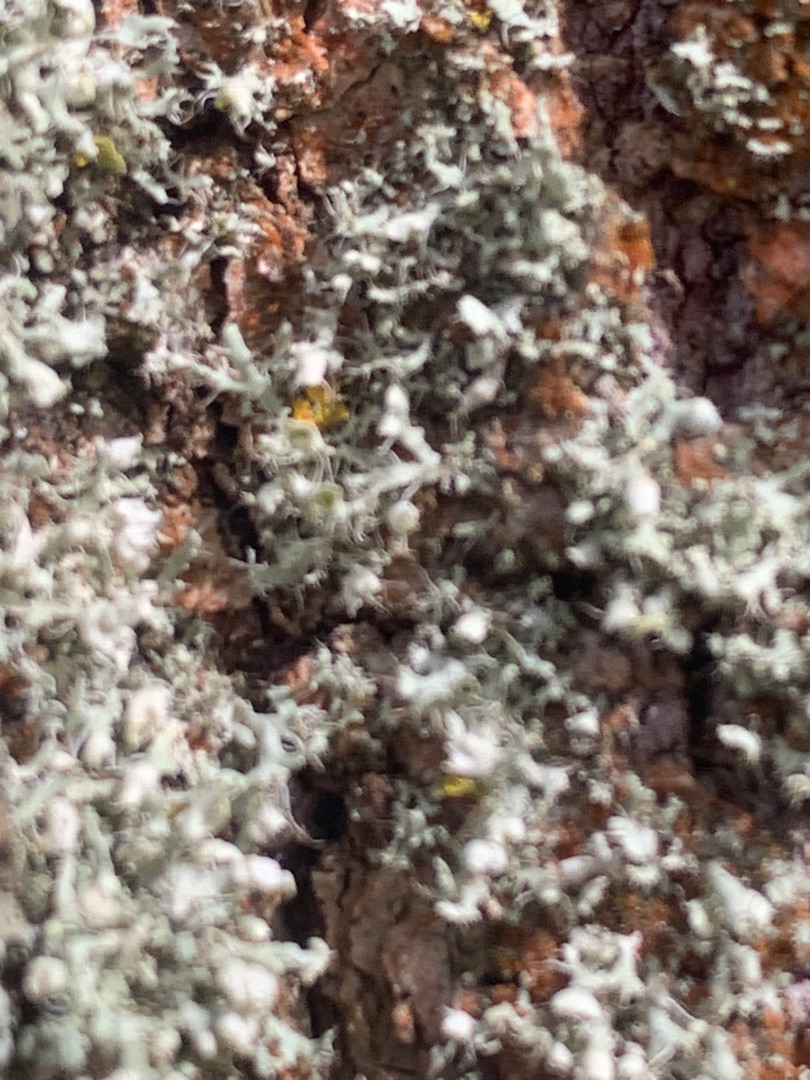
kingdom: Fungi
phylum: Ascomycota
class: Lecanoromycetes
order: Caliciales
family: Physciaceae
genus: Physcia
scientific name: Physcia adscendens
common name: Hætte-rosetlav
